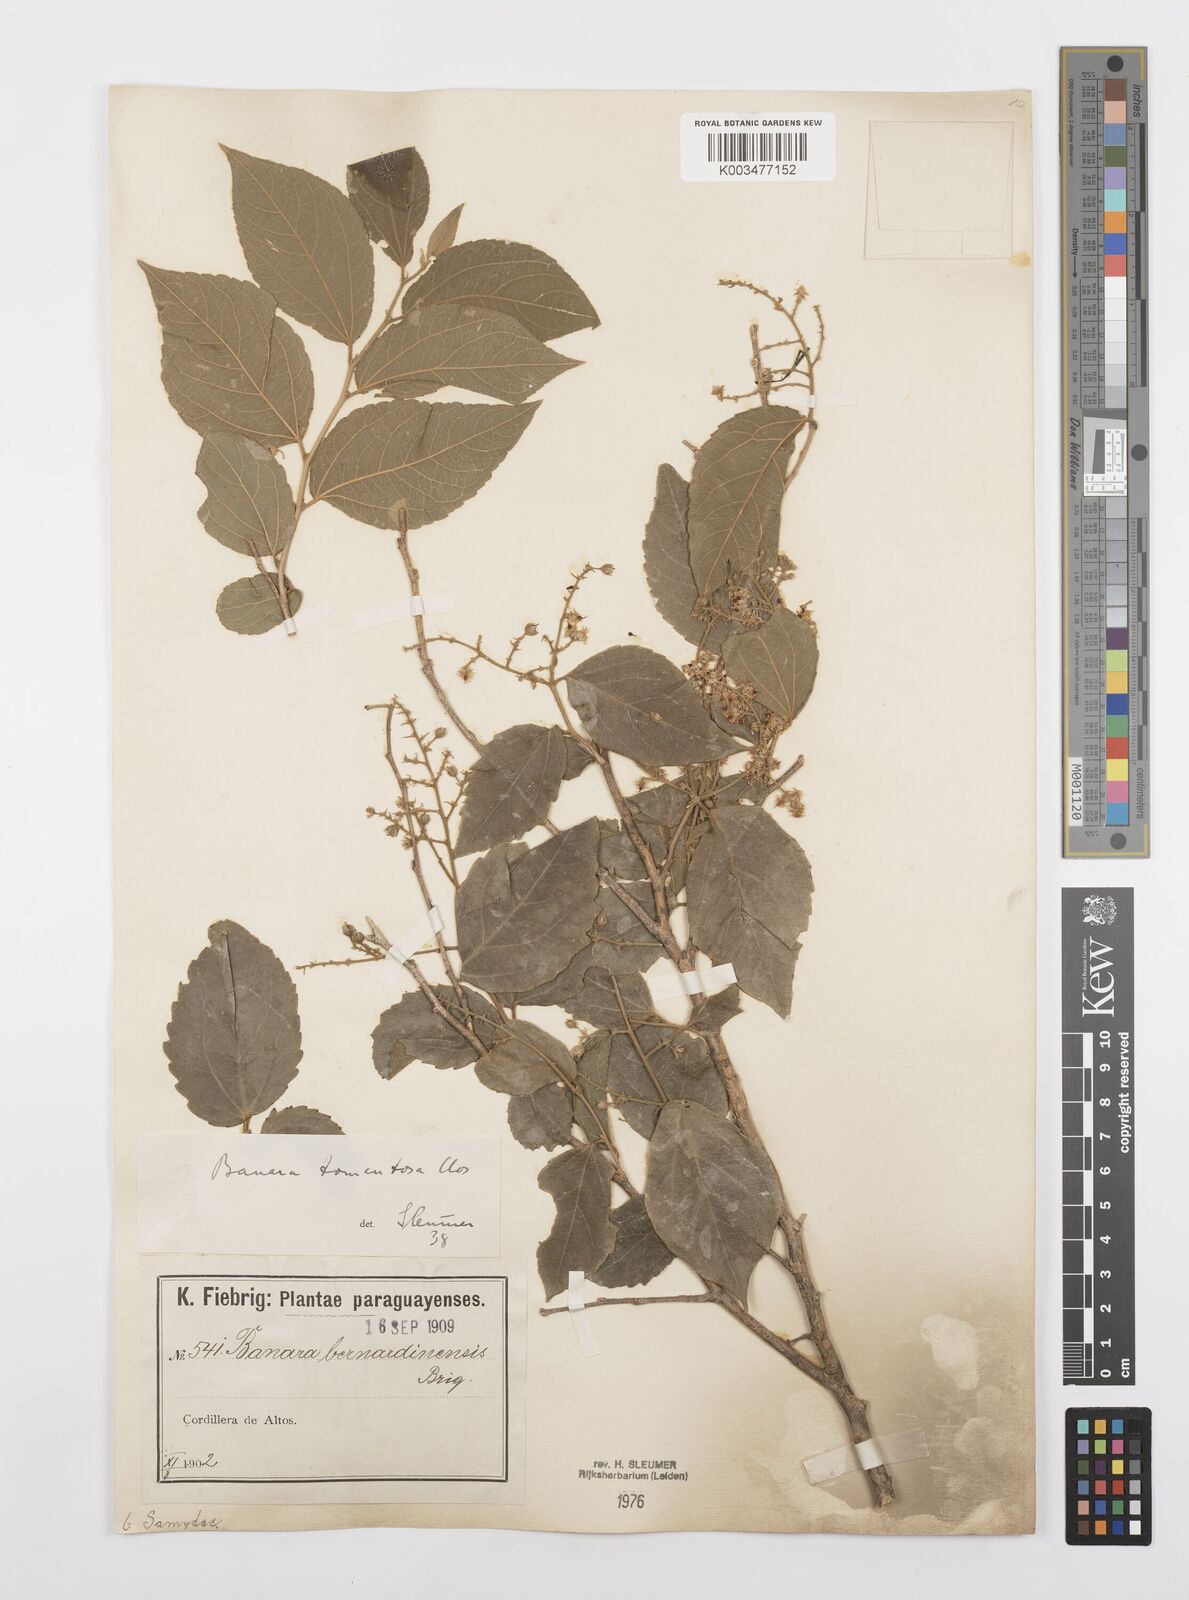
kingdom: Plantae
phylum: Tracheophyta
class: Magnoliopsida
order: Malpighiales
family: Salicaceae
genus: Banara
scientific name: Banara tomentosa
